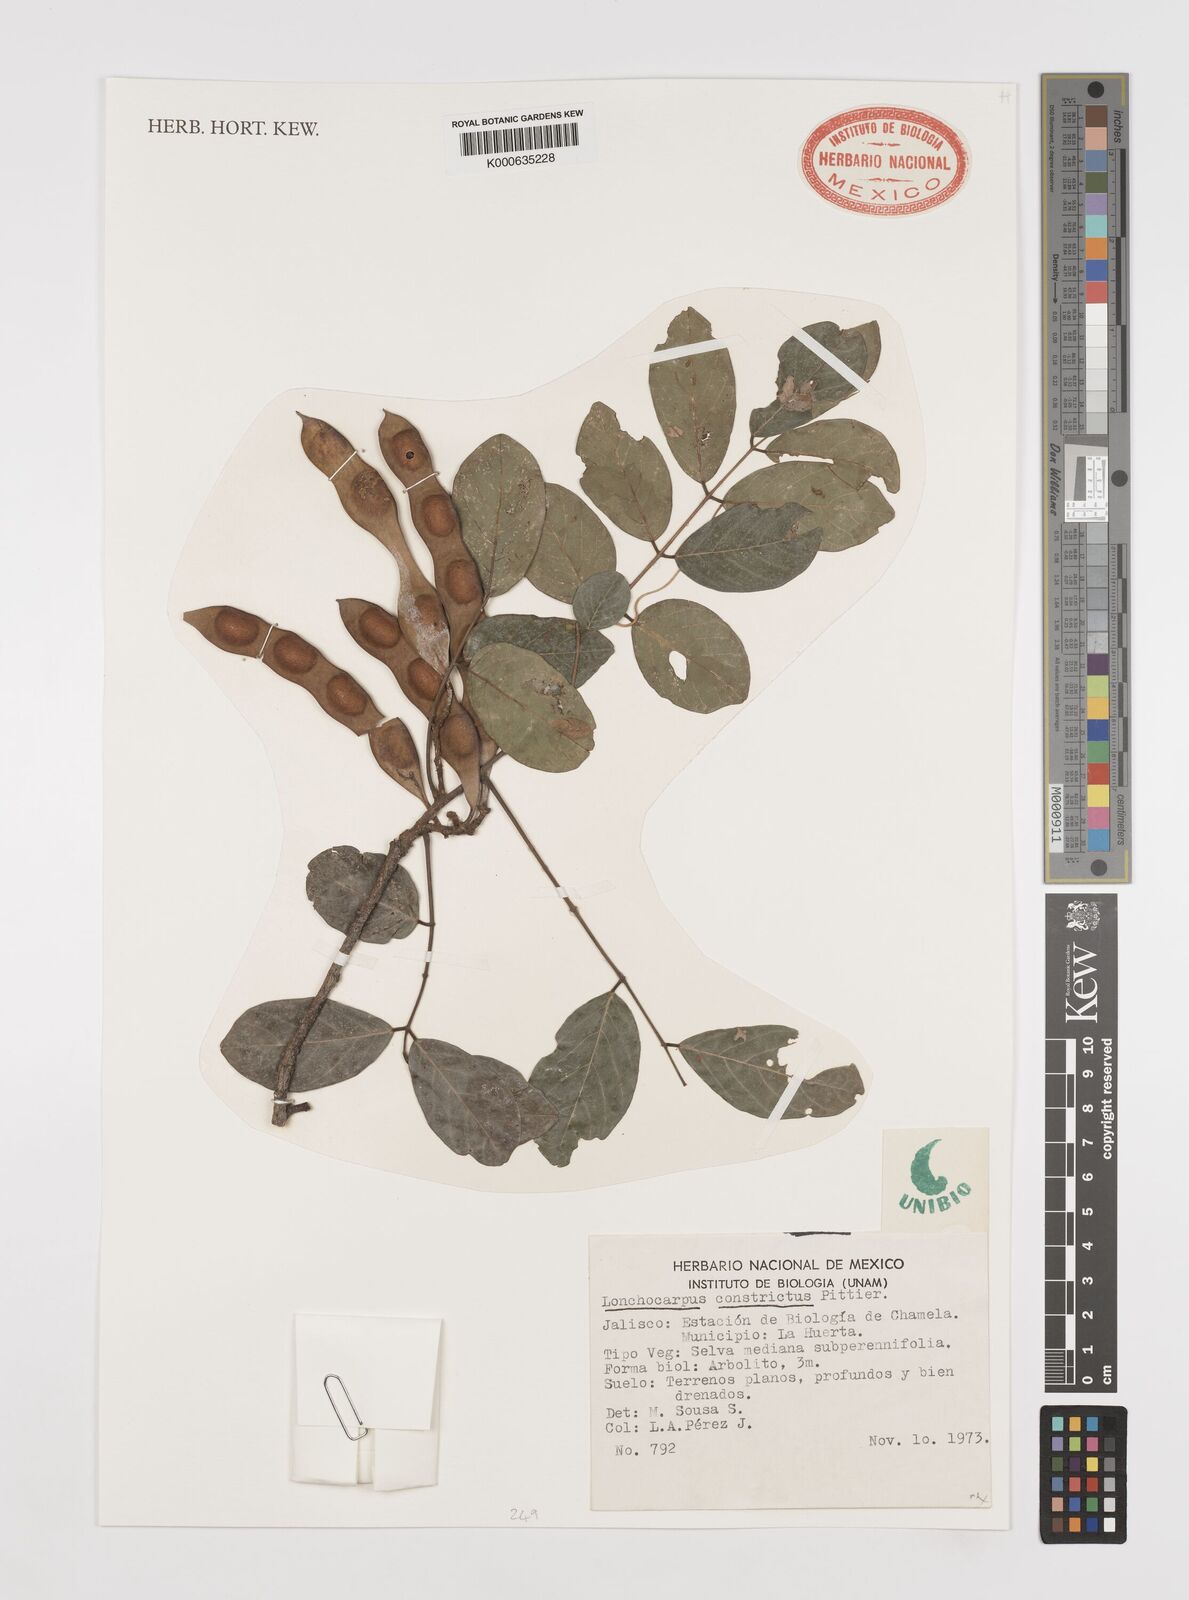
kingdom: Plantae
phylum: Tracheophyta
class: Magnoliopsida
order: Fabales
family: Fabaceae
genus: Lonchocarpus
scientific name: Lonchocarpus constrictus
